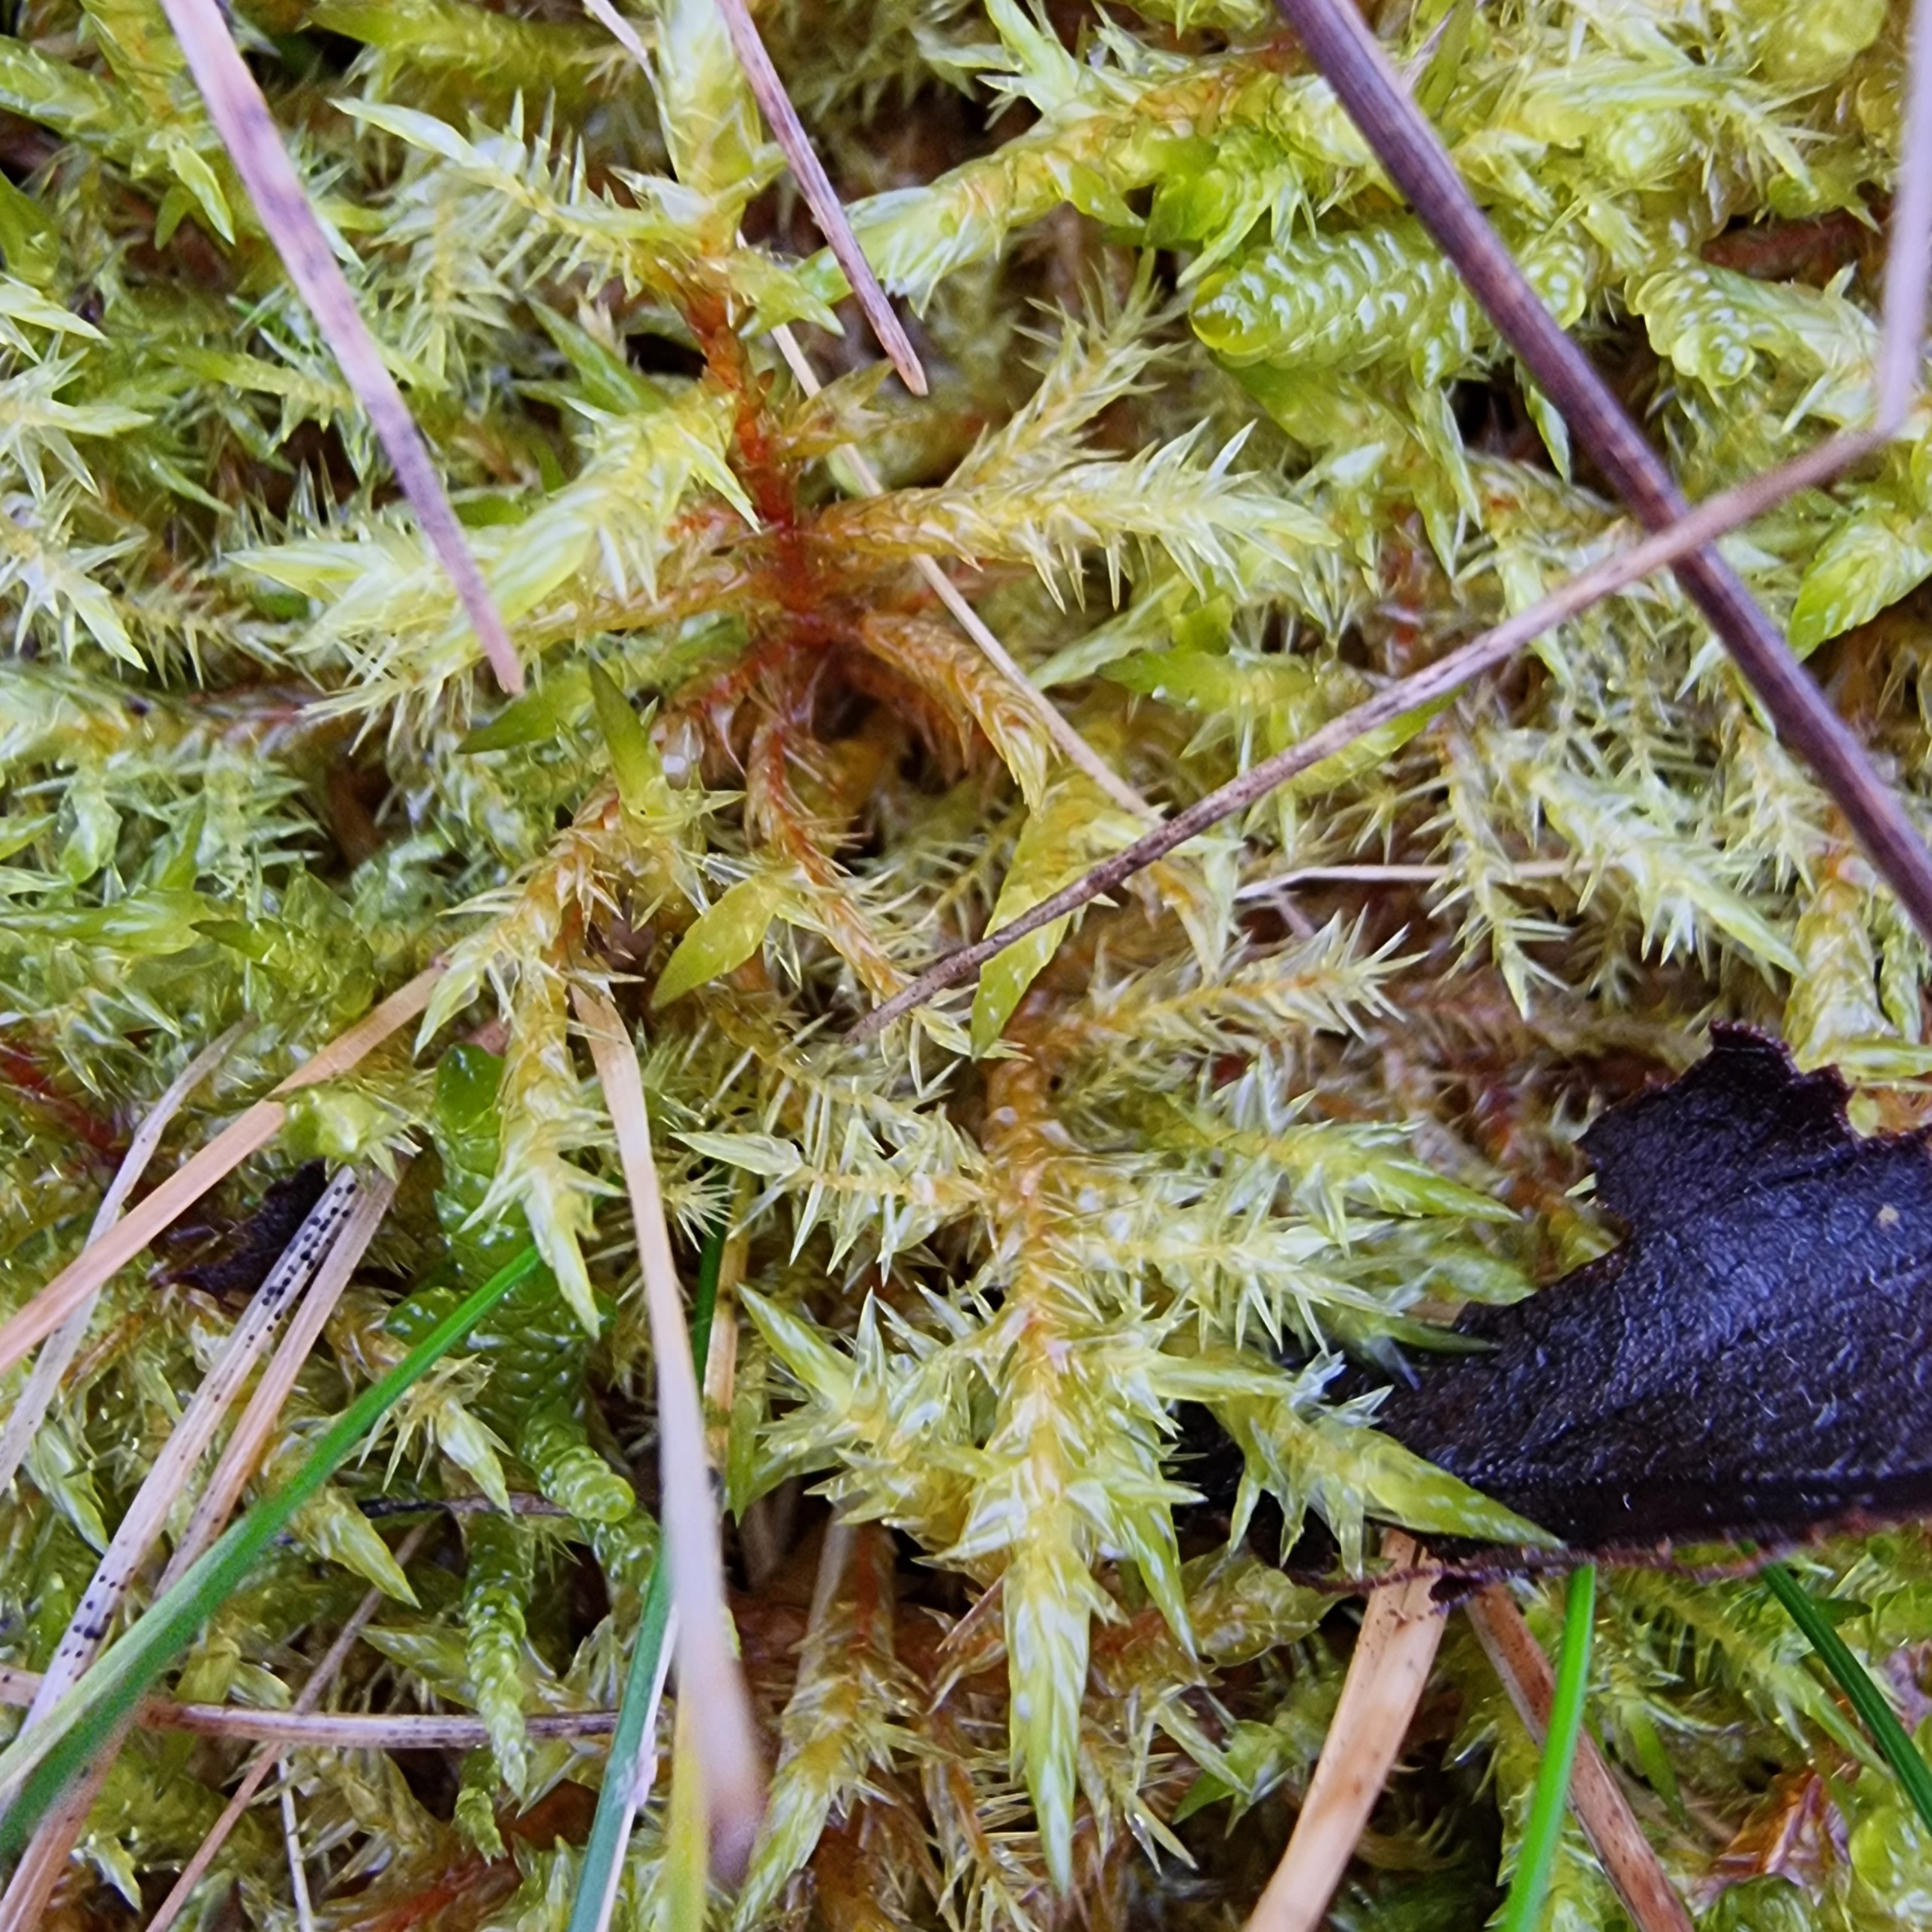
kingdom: Plantae
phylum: Bryophyta
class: Bryopsida
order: Hypnales
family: Pylaisiaceae
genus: Calliergonella
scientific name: Calliergonella cuspidata
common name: Spids spydmos
